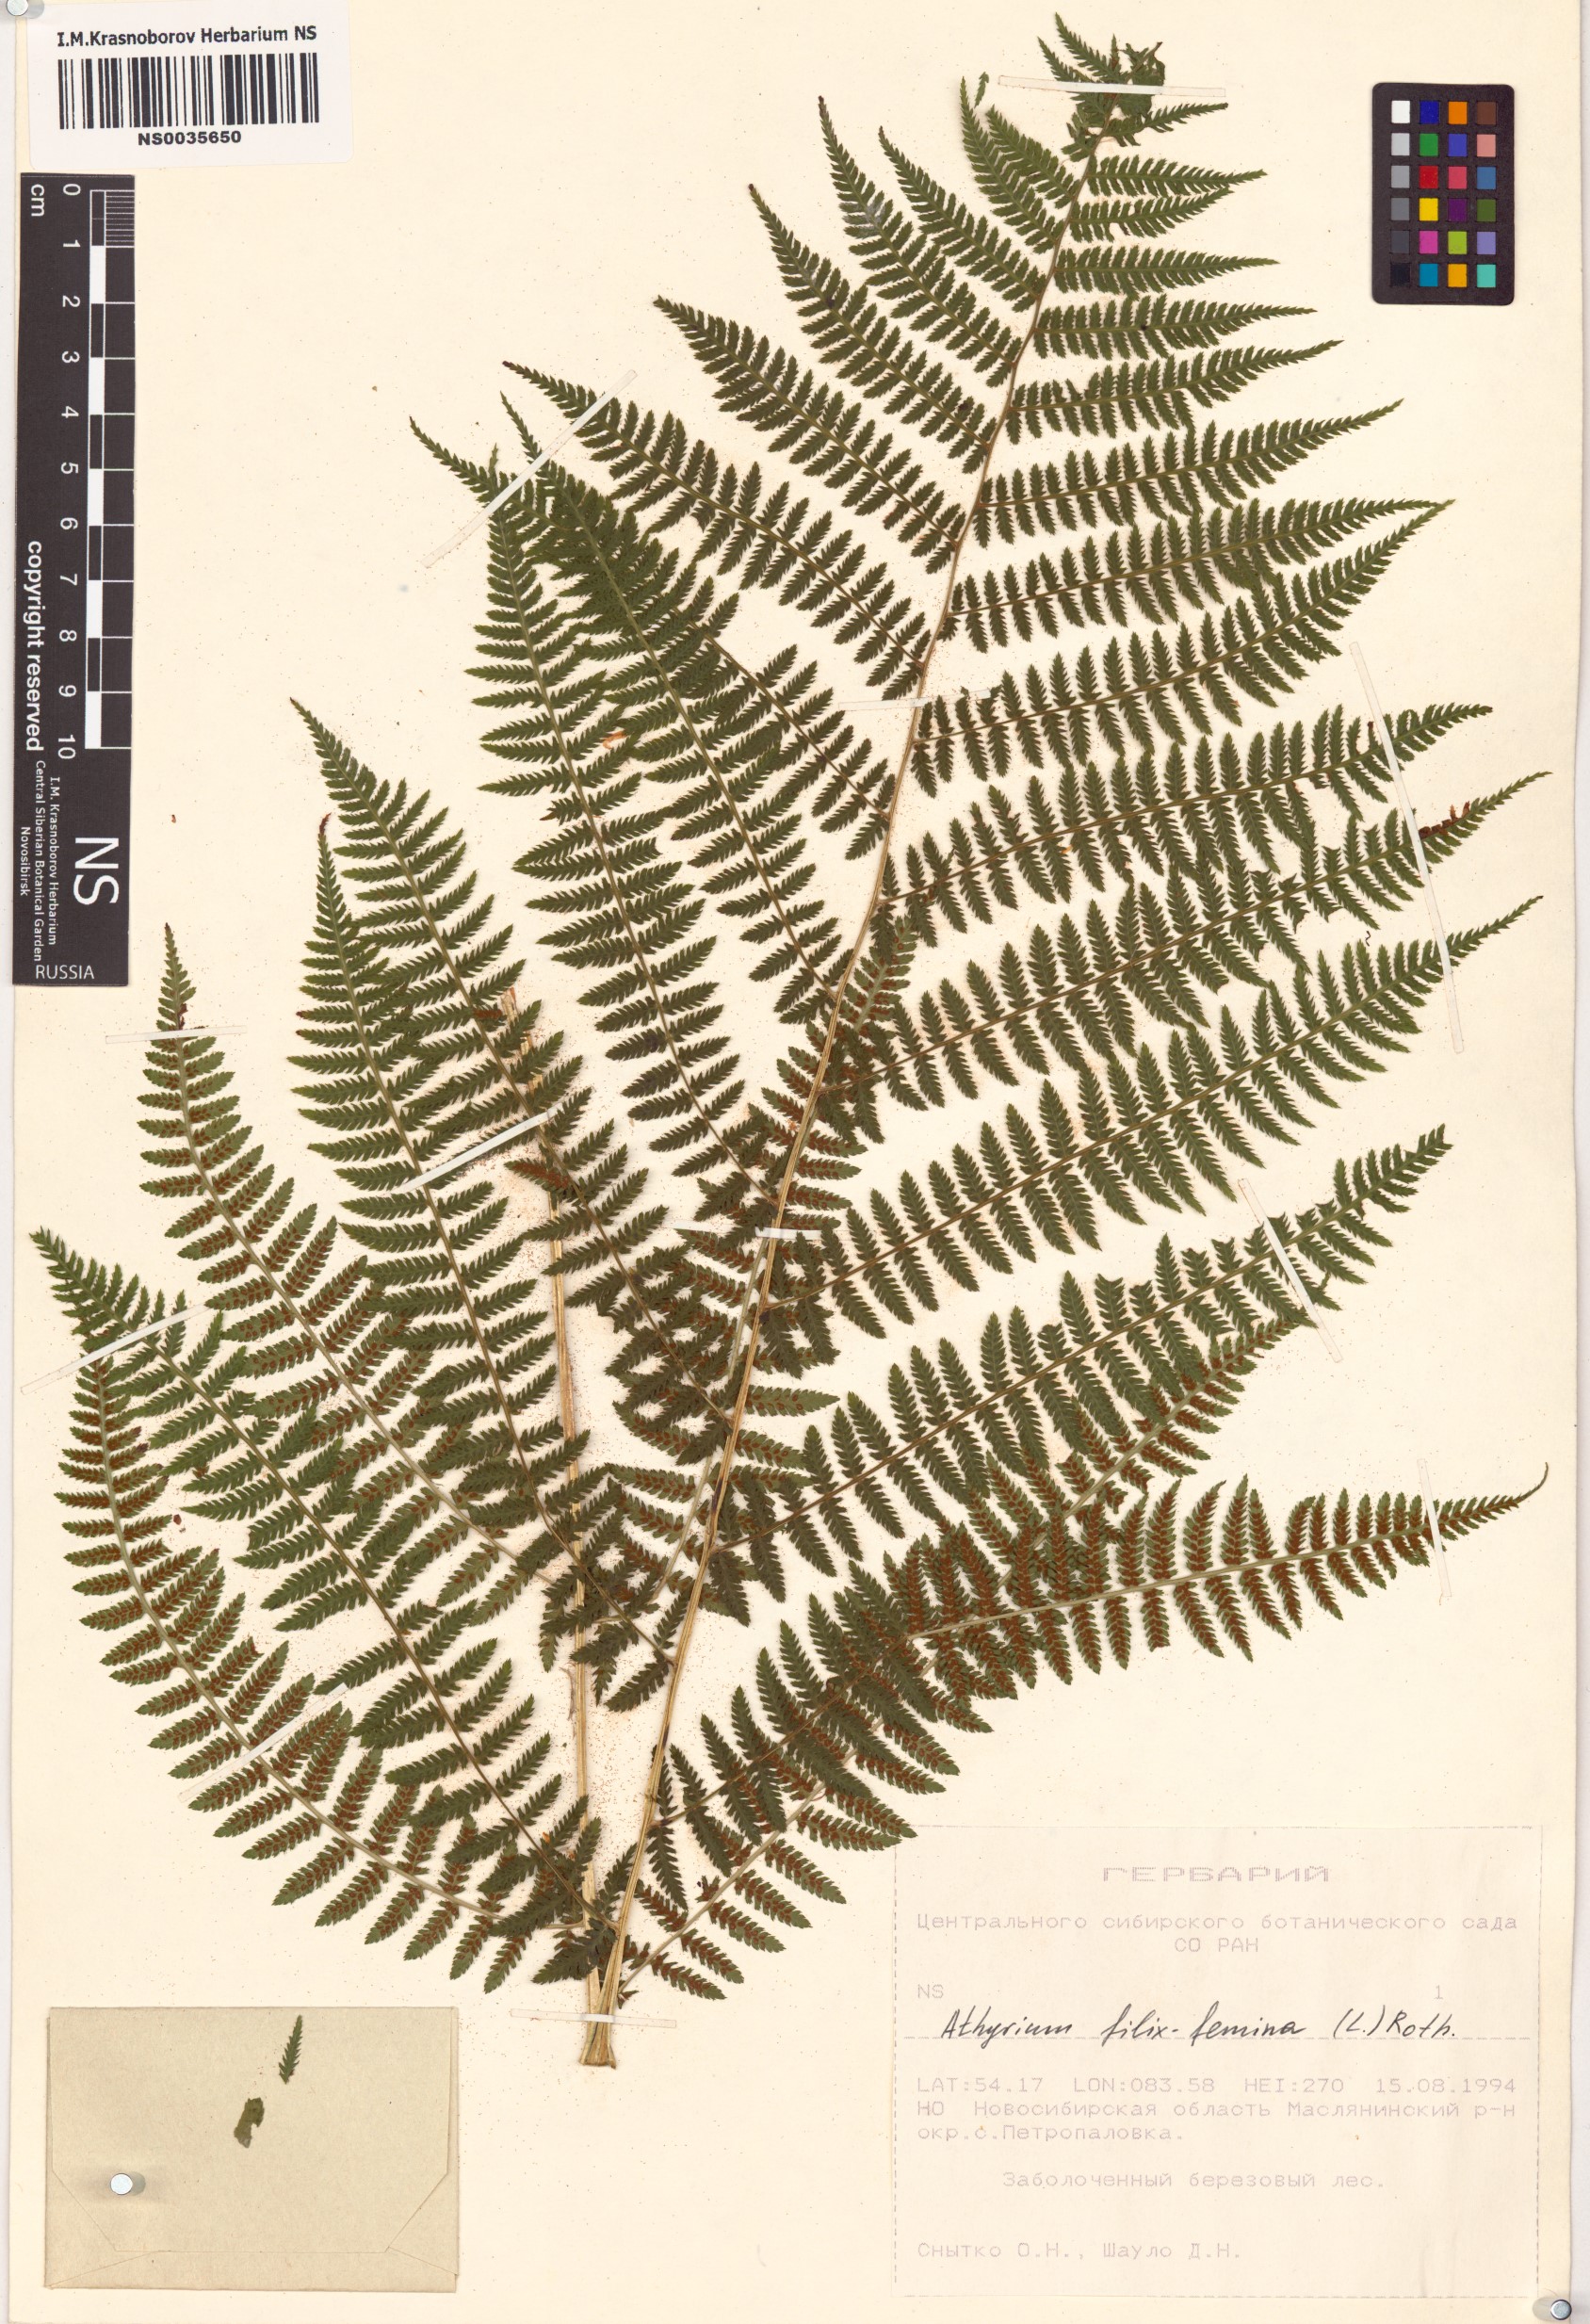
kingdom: Plantae
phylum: Tracheophyta
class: Polypodiopsida
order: Polypodiales
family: Athyriaceae
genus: Athyrium
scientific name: Athyrium filix-femina
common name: Lady fern
